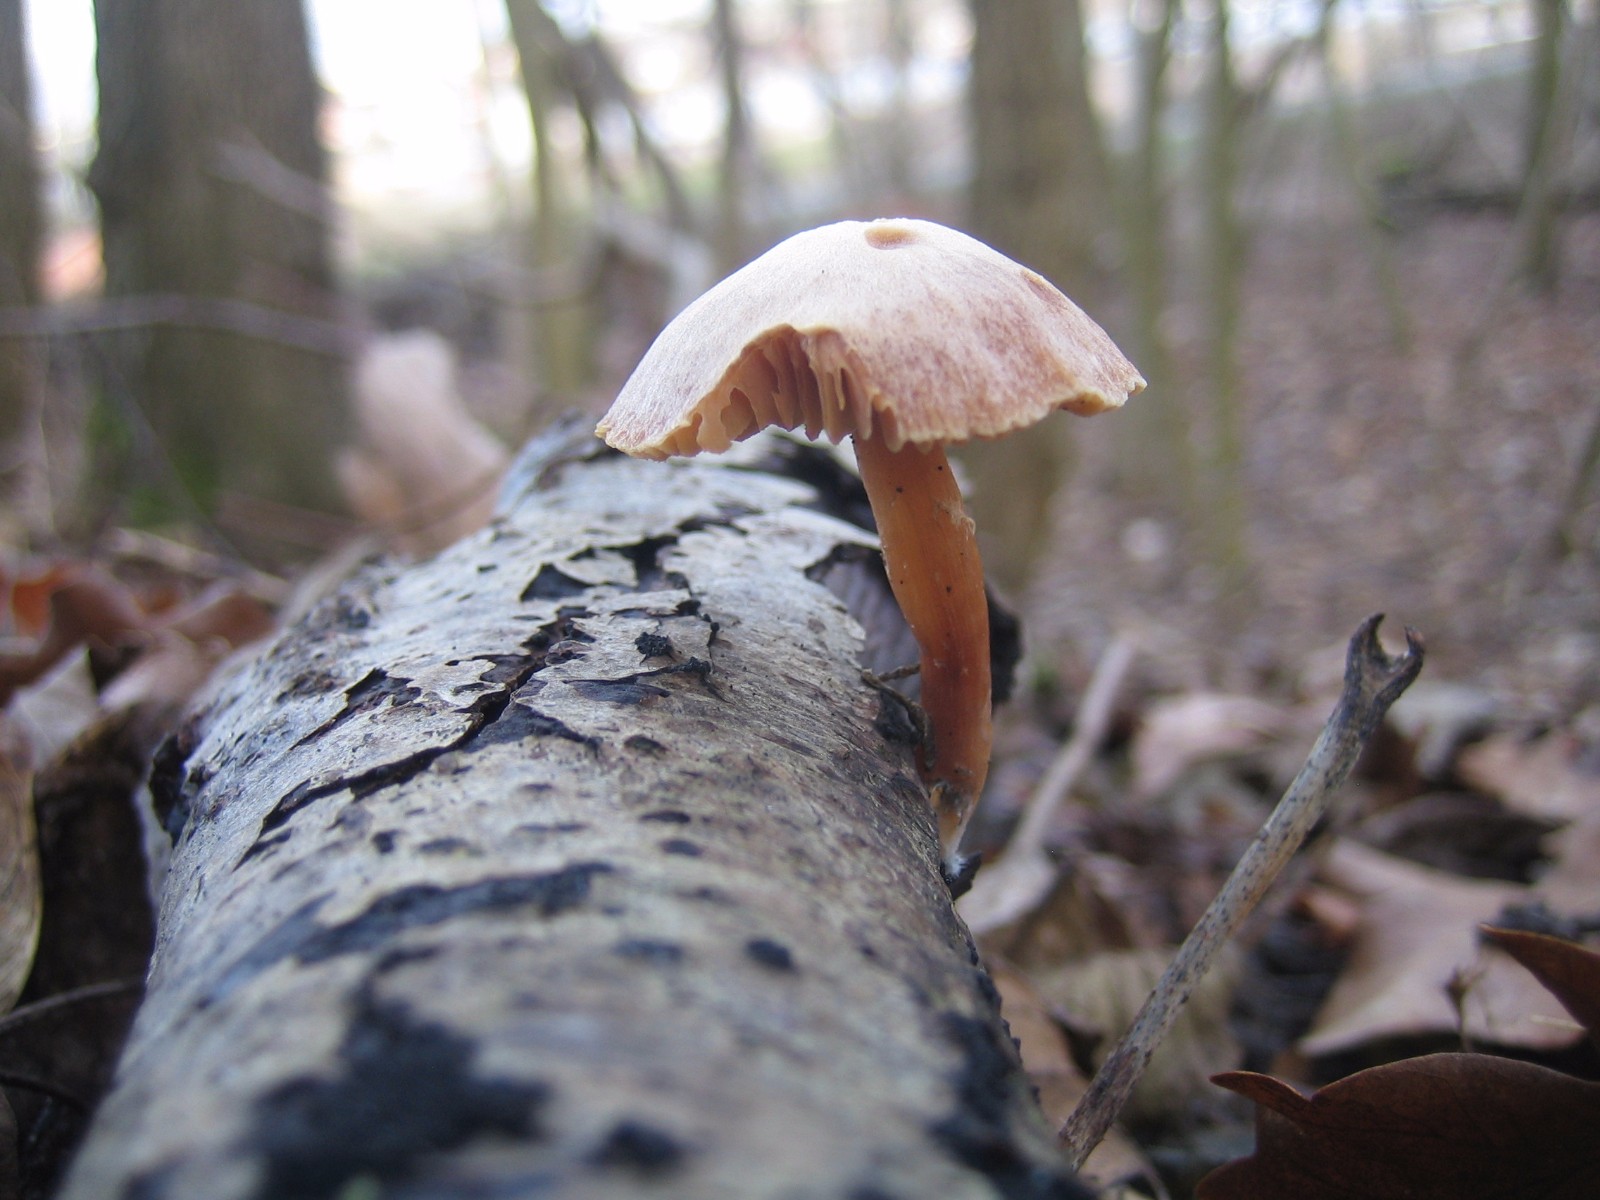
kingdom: Fungi
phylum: Basidiomycota
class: Agaricomycetes
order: Agaricales
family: Tubariaceae
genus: Tubaria
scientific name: Tubaria furfuracea
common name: kliddet fnughat
